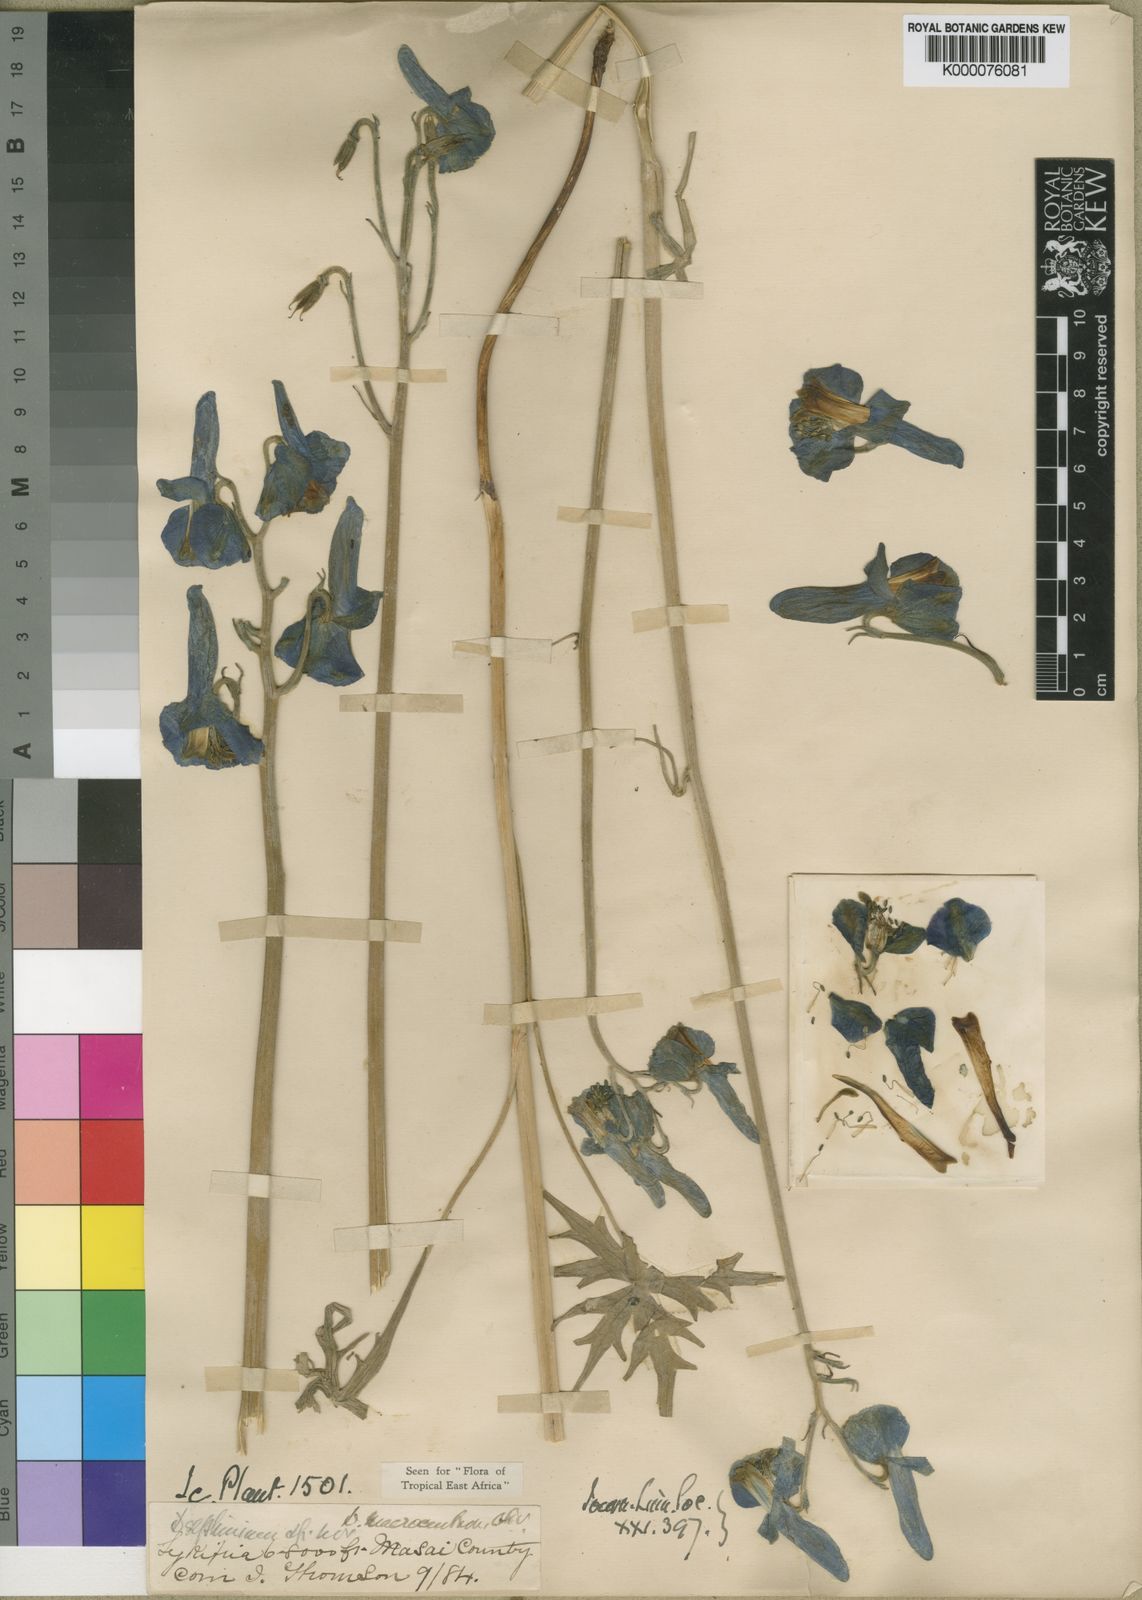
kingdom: Plantae
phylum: Tracheophyta
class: Magnoliopsida
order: Ranunculales
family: Ranunculaceae
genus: Delphinium
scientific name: Delphinium macrocentrum
